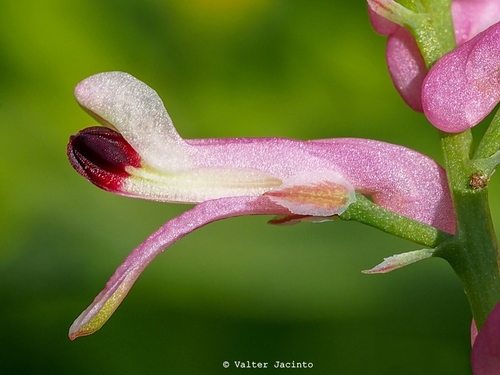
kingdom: Plantae
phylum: Tracheophyta
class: Magnoliopsida
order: Ranunculales
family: Papaveraceae
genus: Fumaria
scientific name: Fumaria agraria
